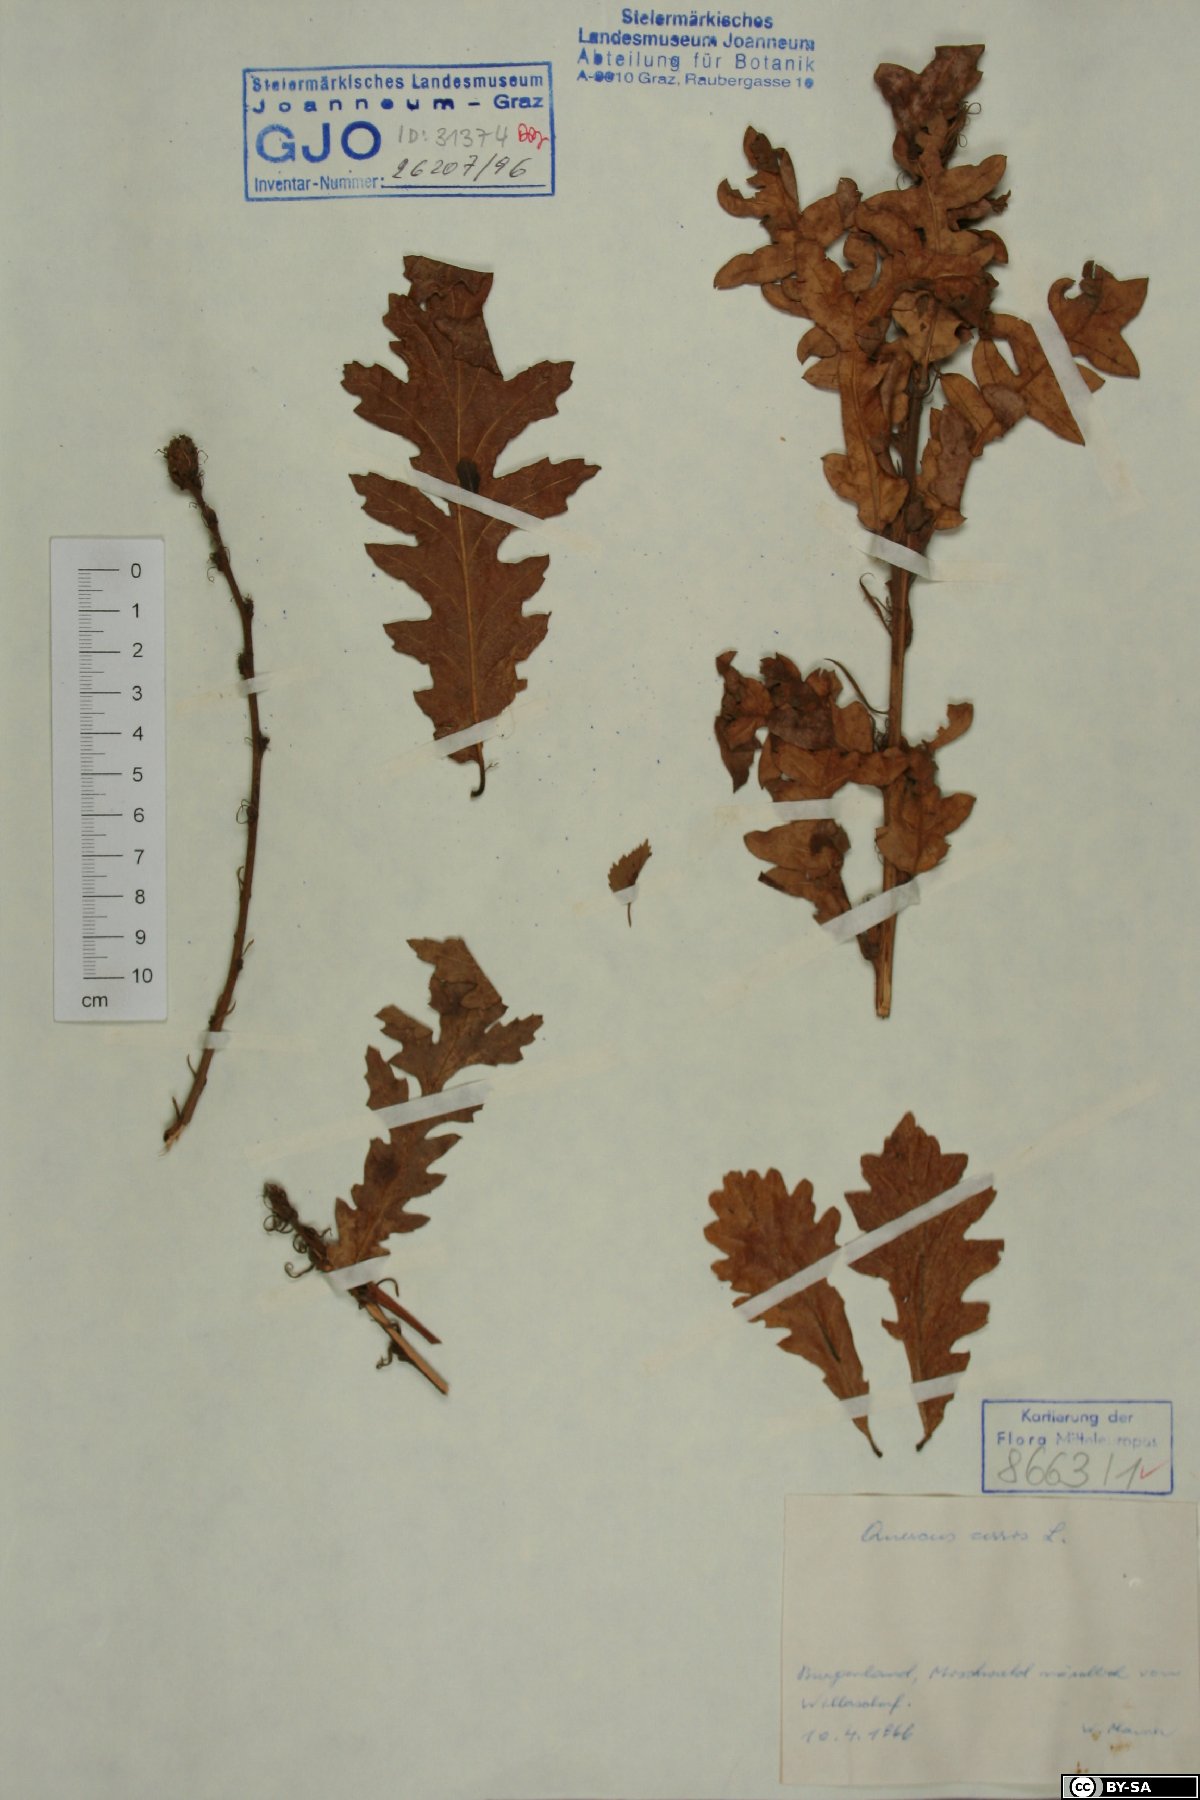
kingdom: Plantae
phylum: Tracheophyta
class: Magnoliopsida
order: Fagales
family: Fagaceae
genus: Quercus
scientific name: Quercus cerris
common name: Turkey oak
